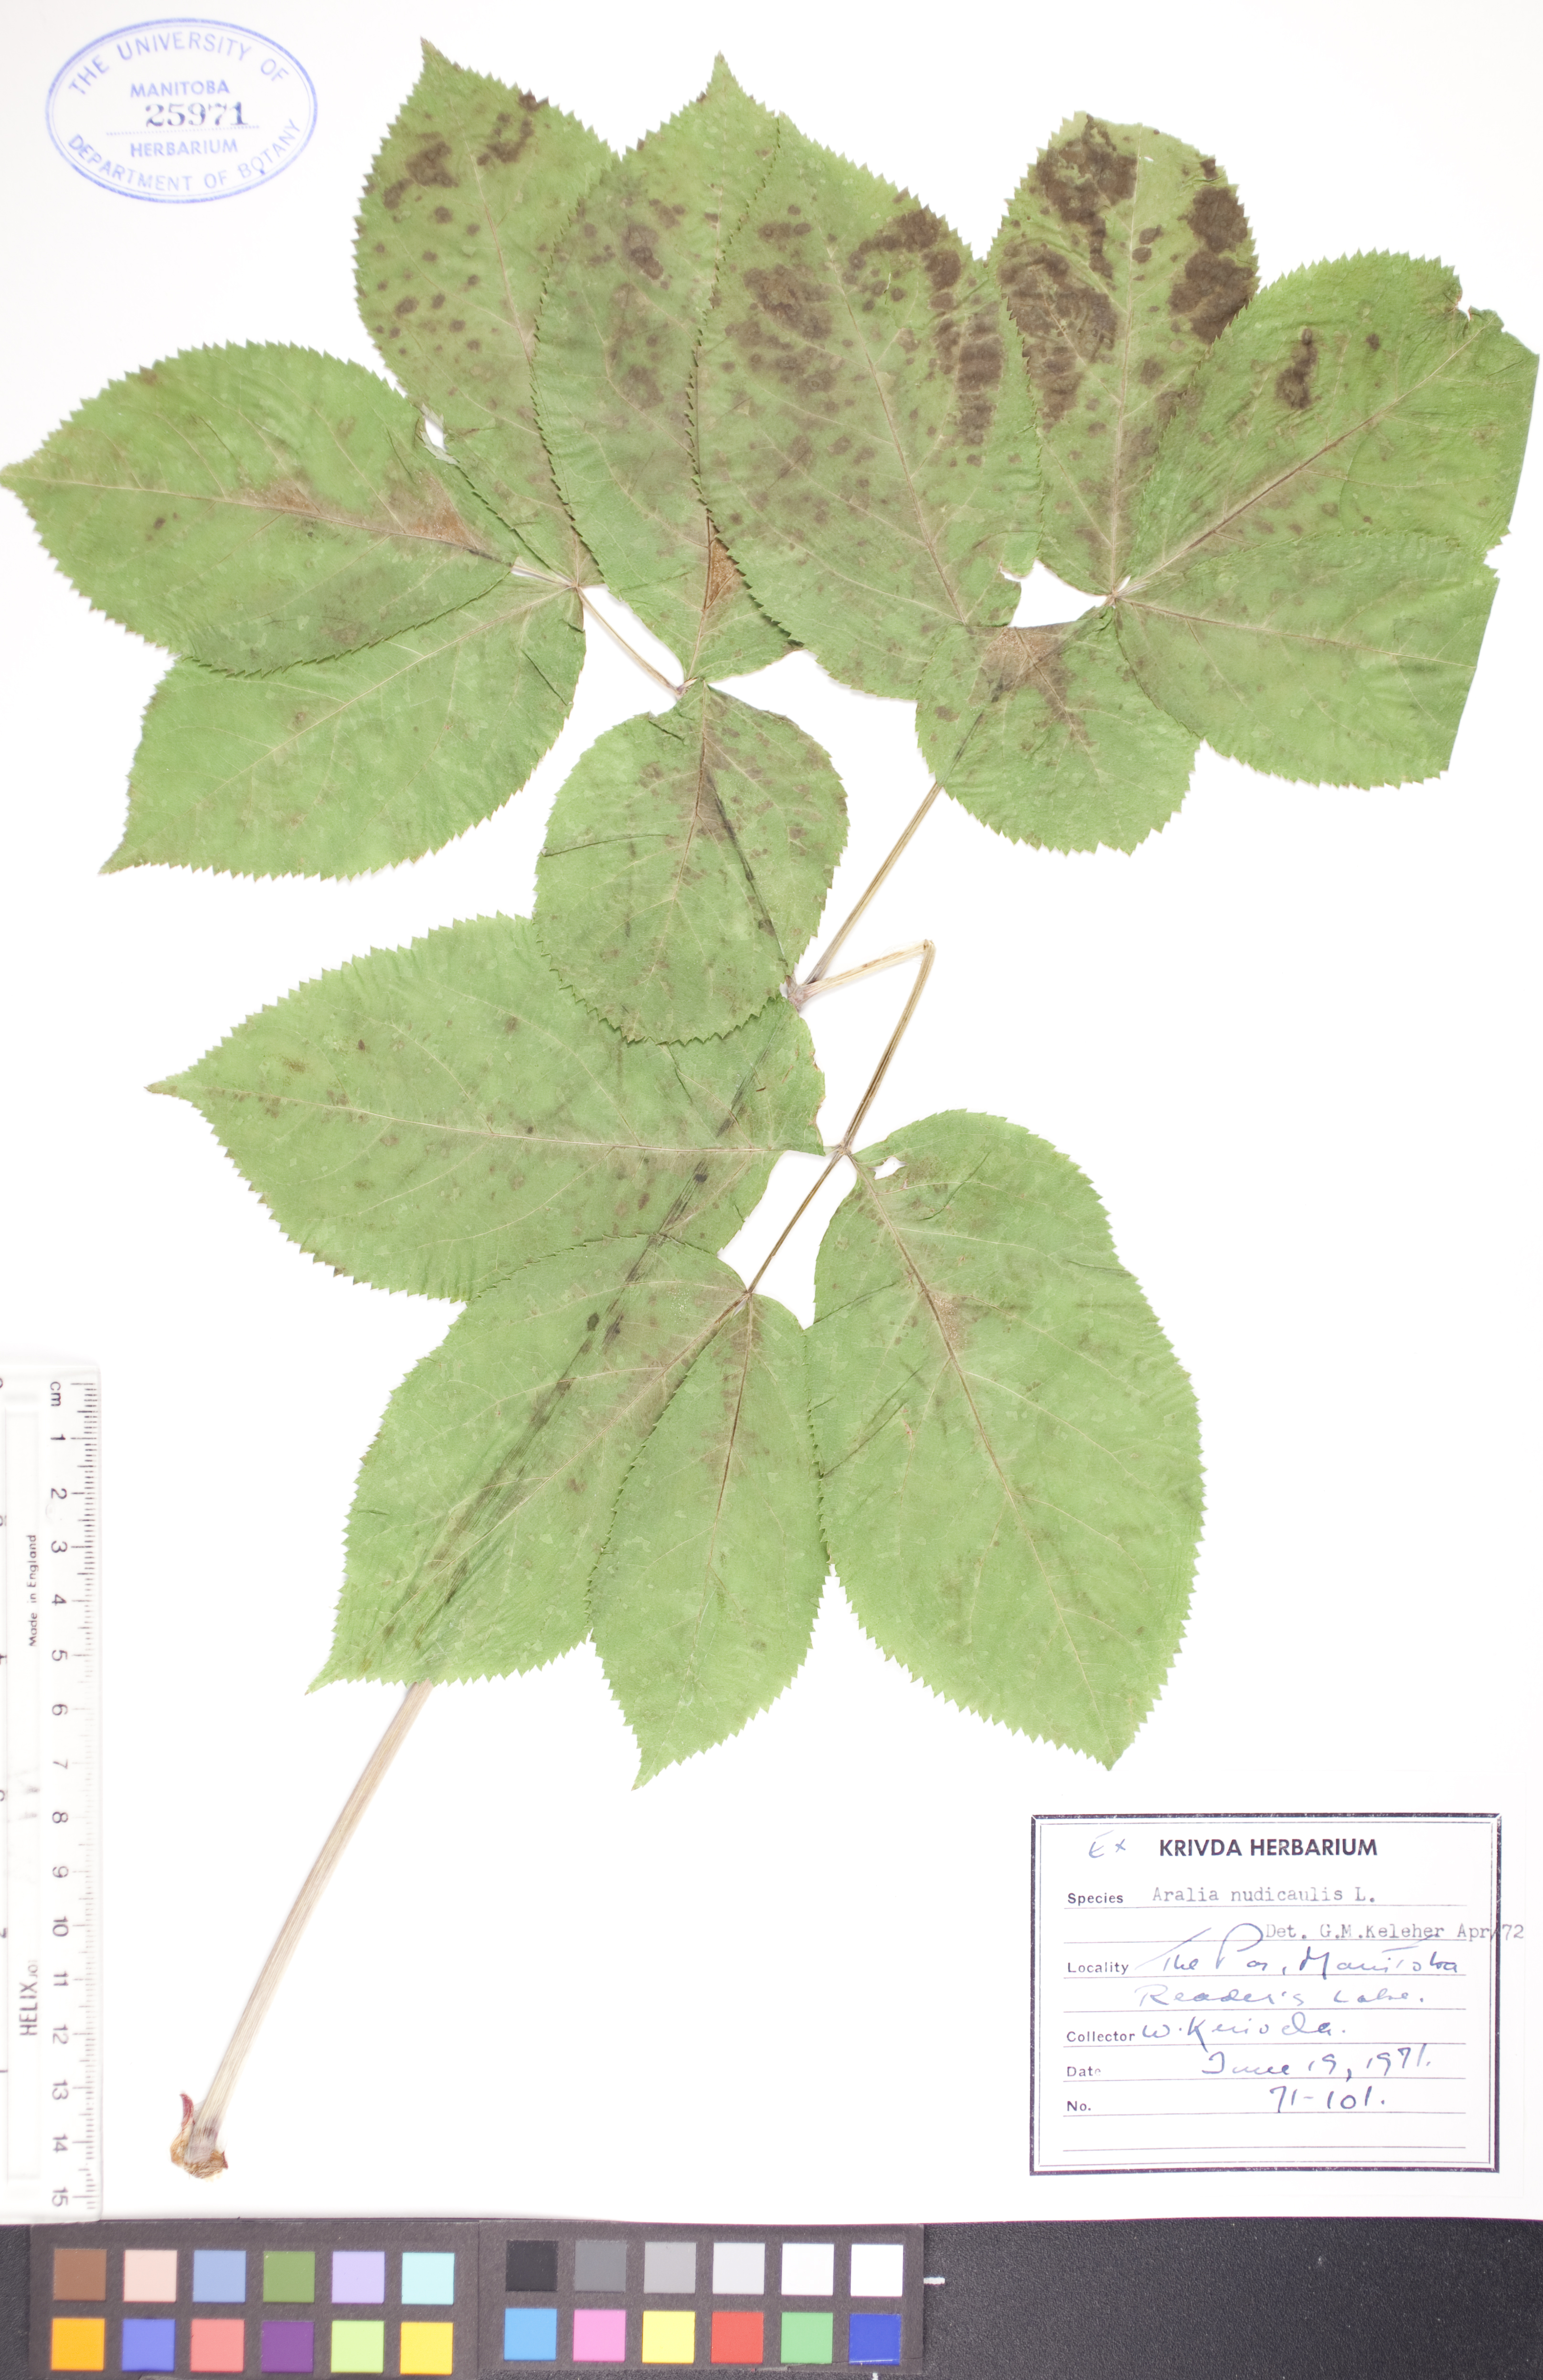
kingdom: Plantae
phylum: Tracheophyta
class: Magnoliopsida
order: Apiales
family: Araliaceae
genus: Aralia
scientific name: Aralia nudicaulis
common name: Wild sarsaparilla
